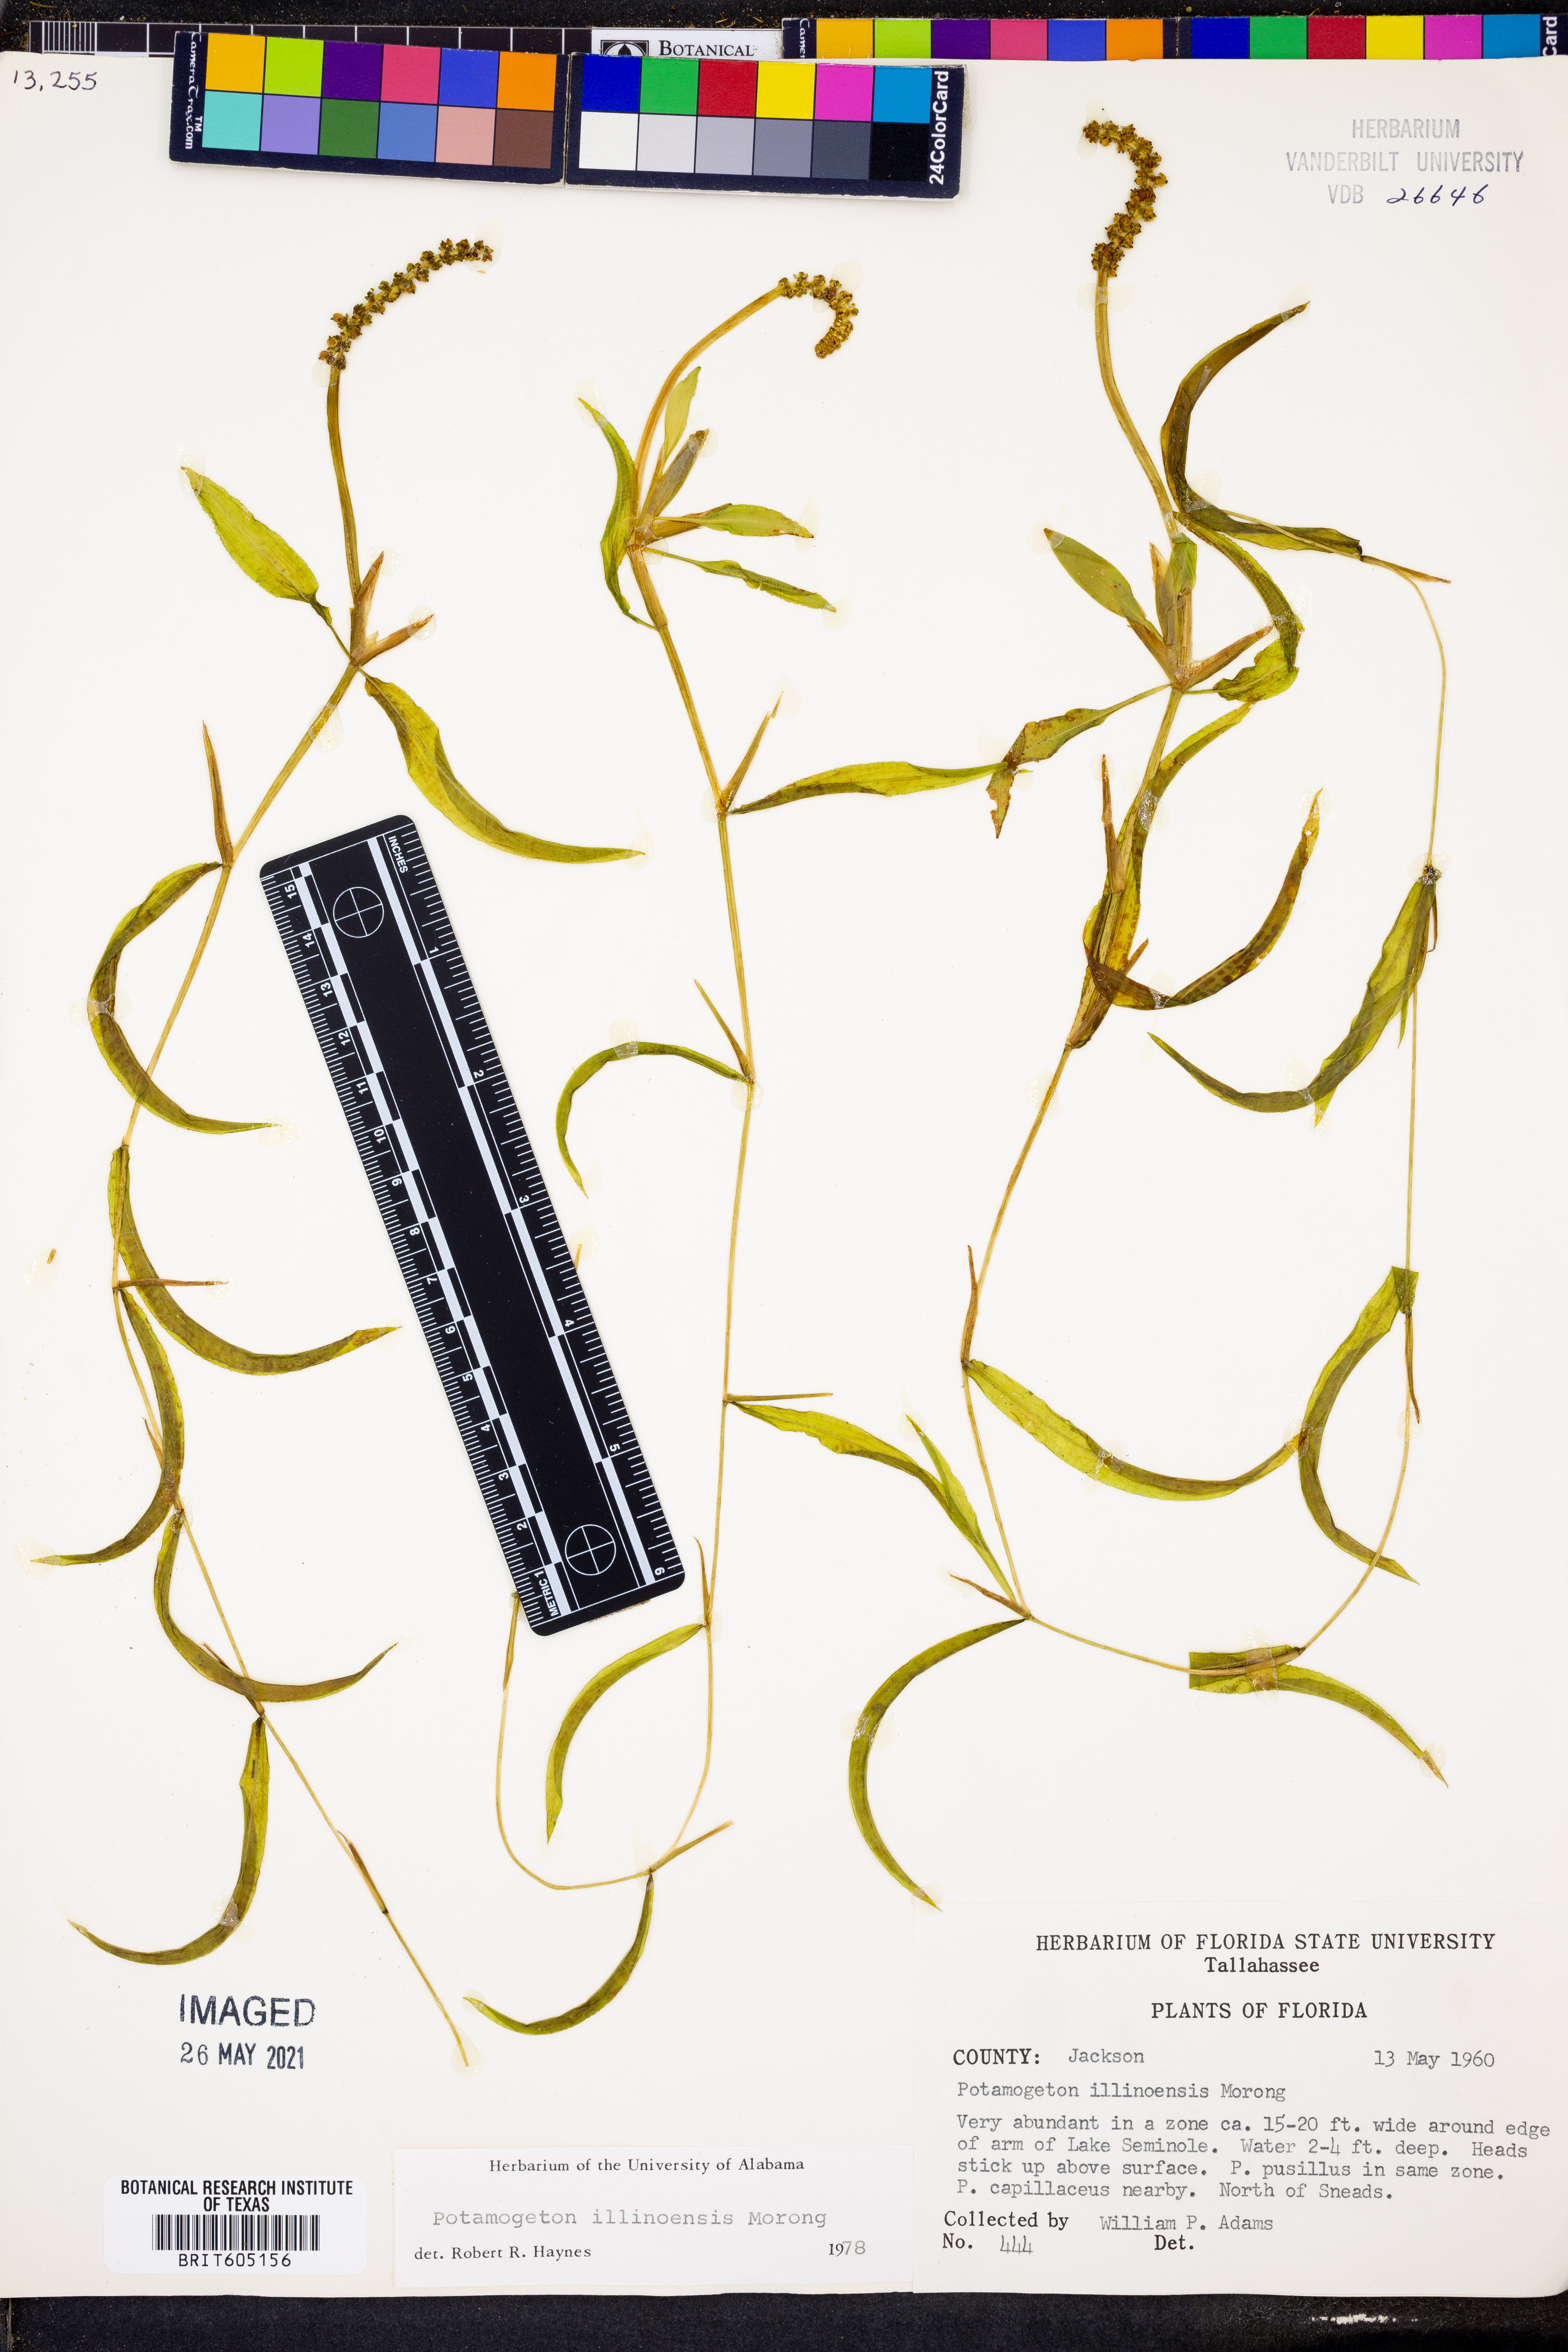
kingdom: Plantae
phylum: Tracheophyta
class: Liliopsida
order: Alismatales
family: Potamogetonaceae
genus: Potamogeton
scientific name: Potamogeton illinoensis
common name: Illinois pondweed
